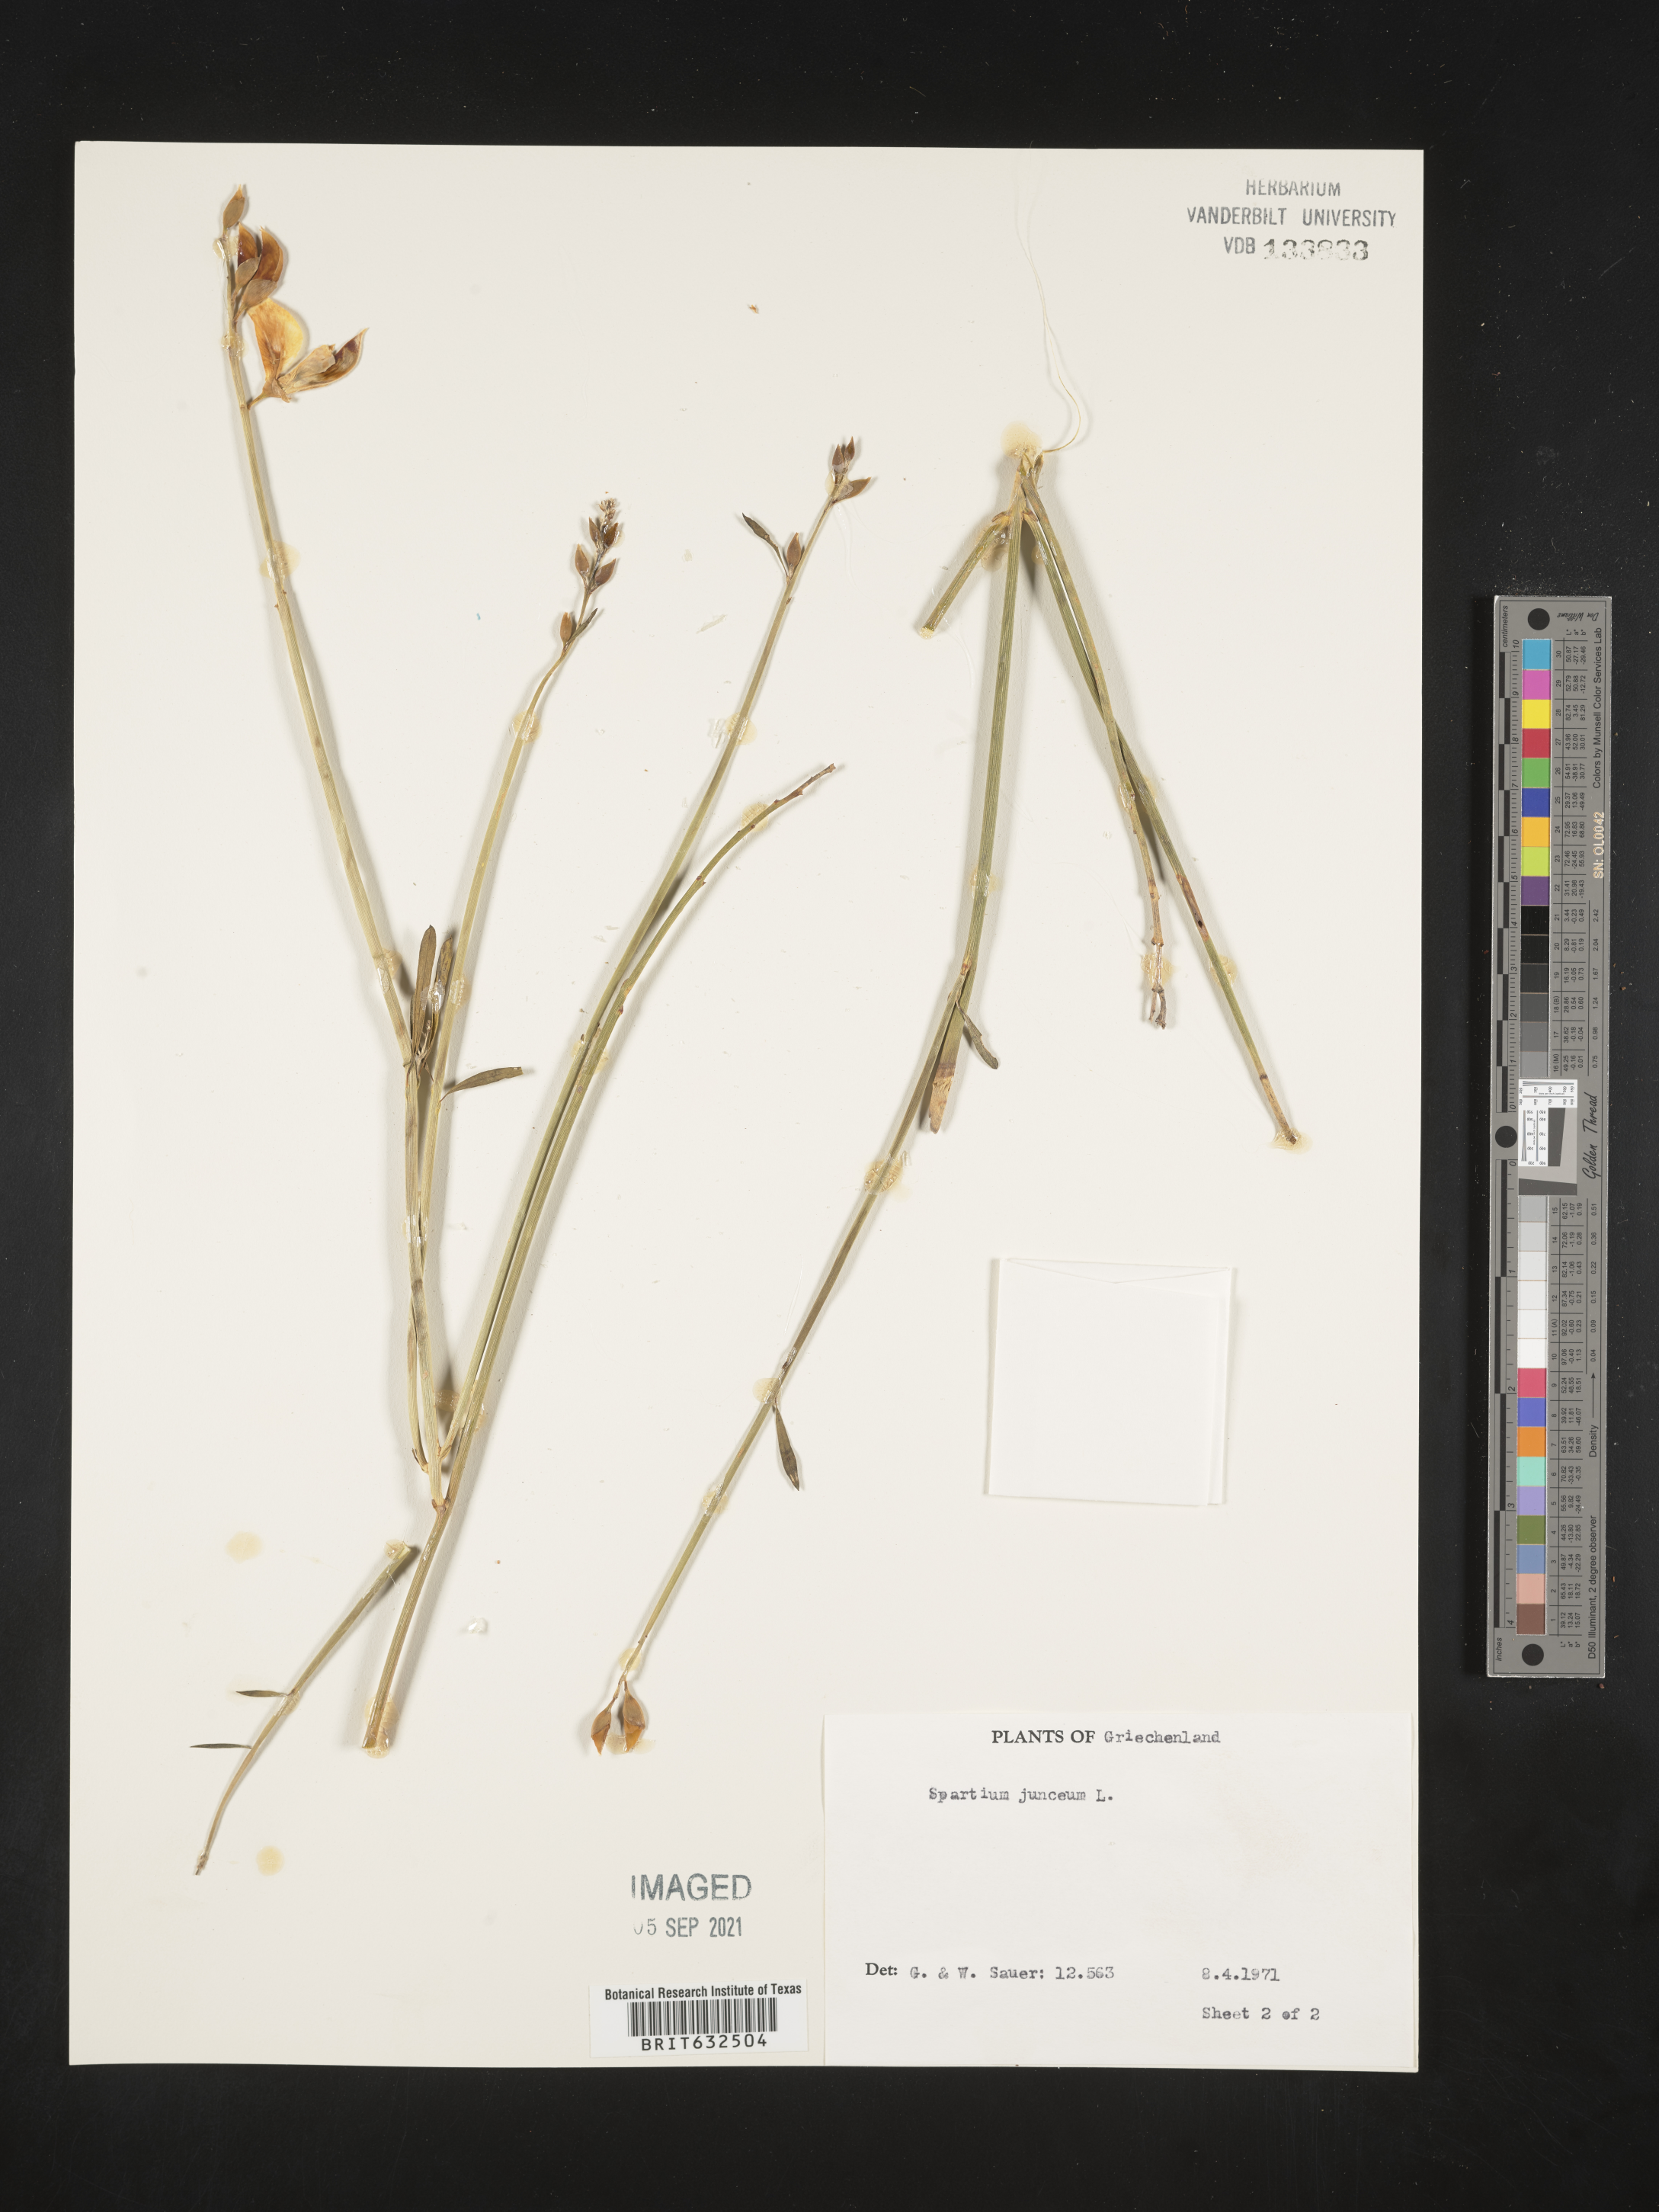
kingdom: Plantae
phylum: Tracheophyta
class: Magnoliopsida
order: Fabales
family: Fabaceae
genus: Spartium
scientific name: Spartium
